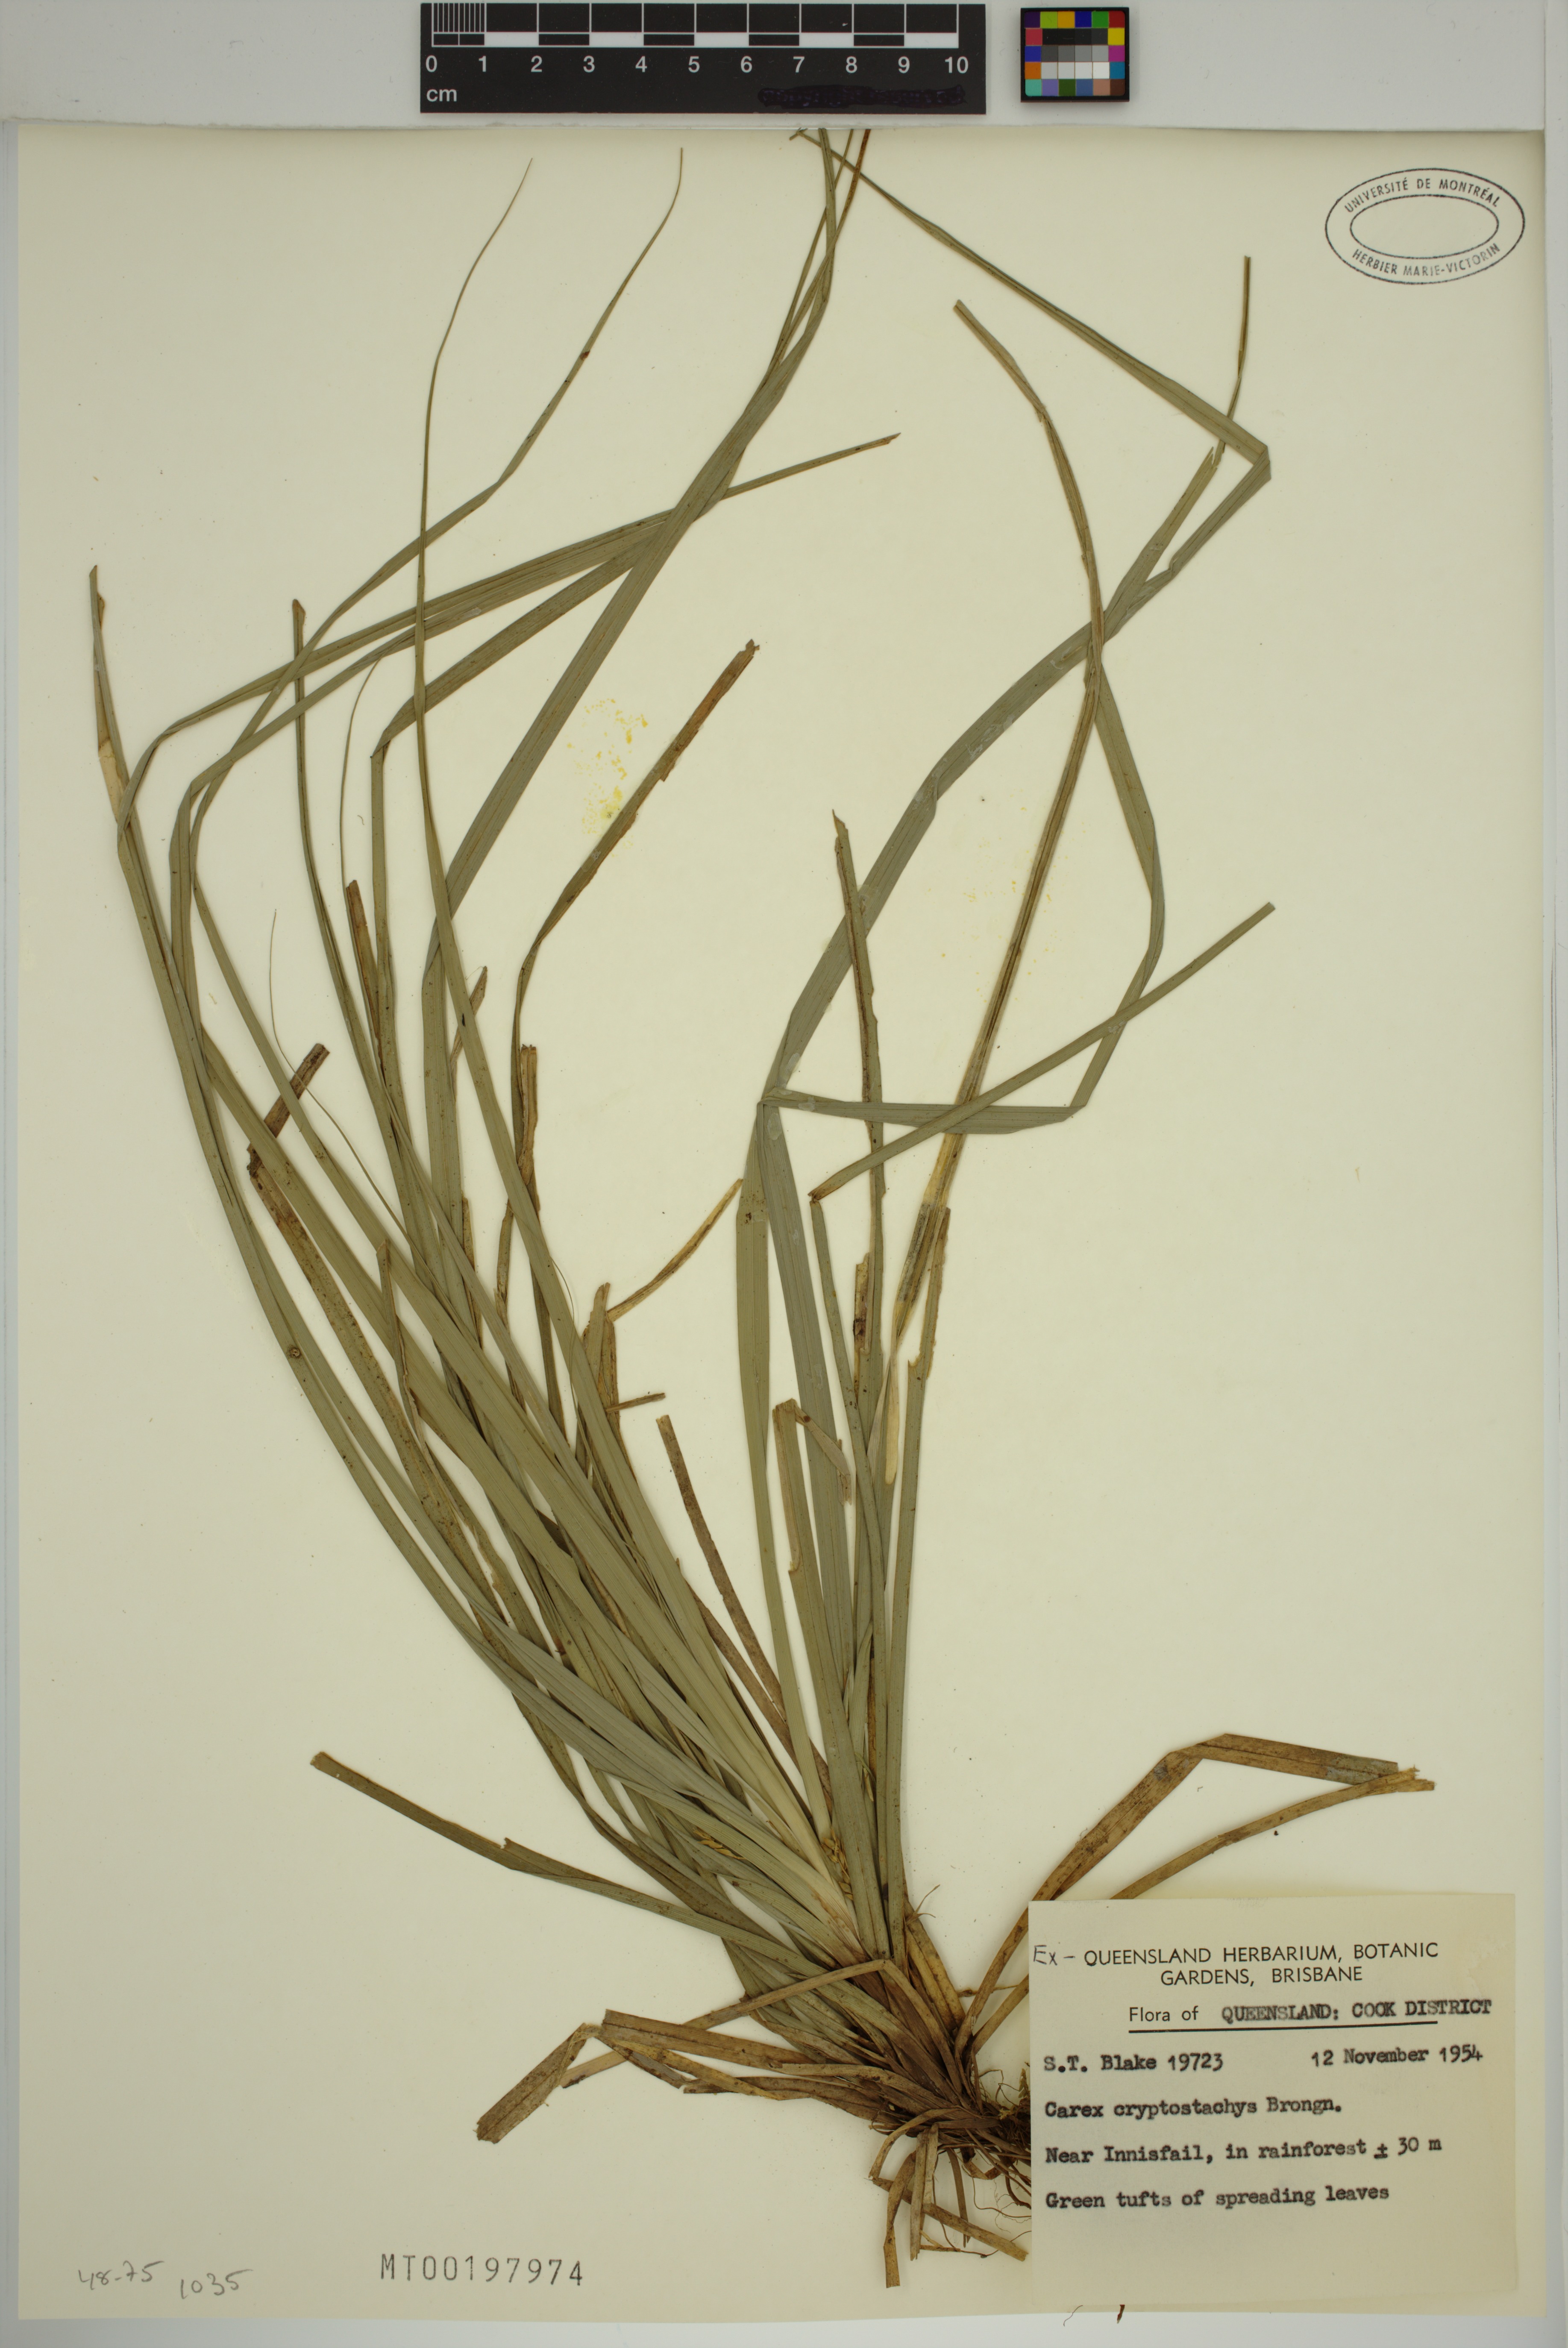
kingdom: Plantae
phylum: Tracheophyta
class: Liliopsida
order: Poales
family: Cyperaceae
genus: Carex
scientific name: Carex cryptostachys
